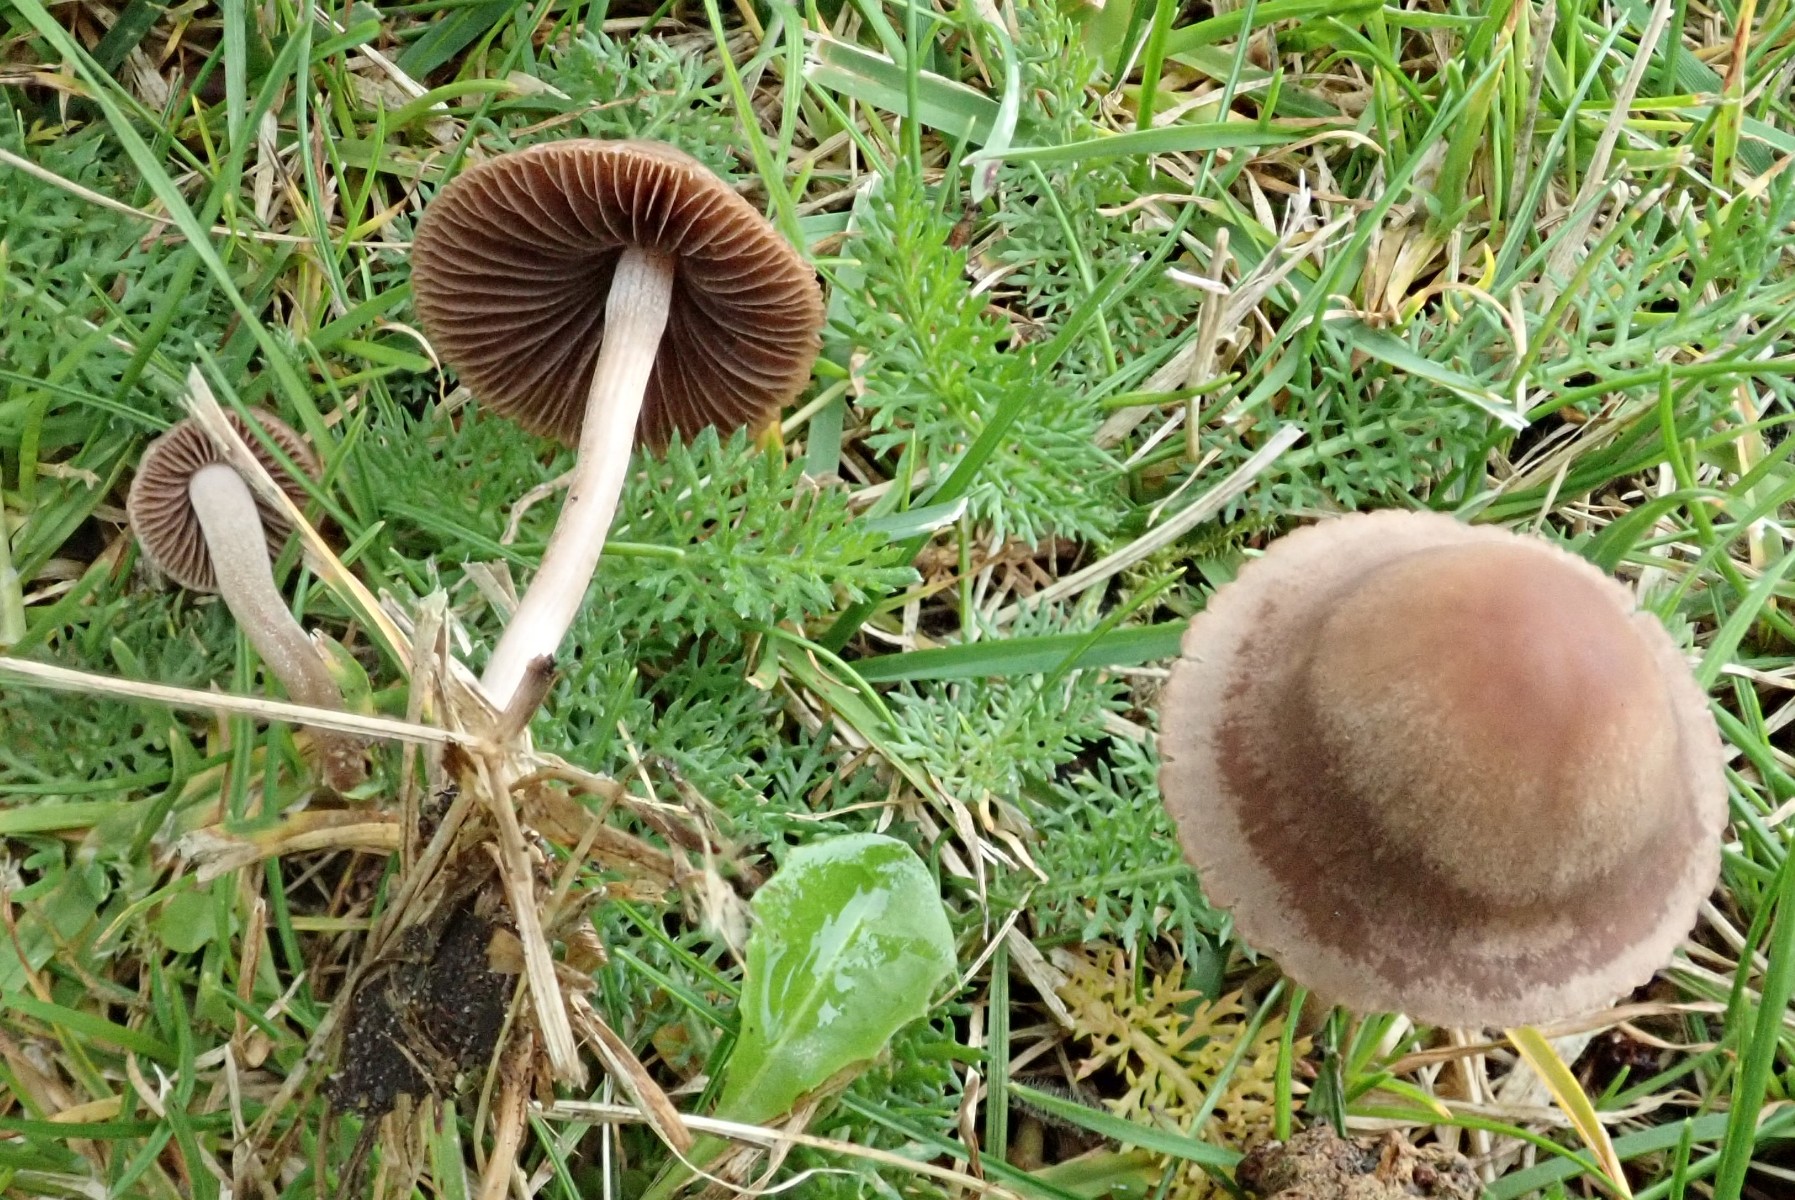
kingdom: Fungi
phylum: Basidiomycota
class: Agaricomycetes
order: Agaricales
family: Bolbitiaceae
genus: Panaeolina
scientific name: Panaeolina foenisecii
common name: høslætsvamp
